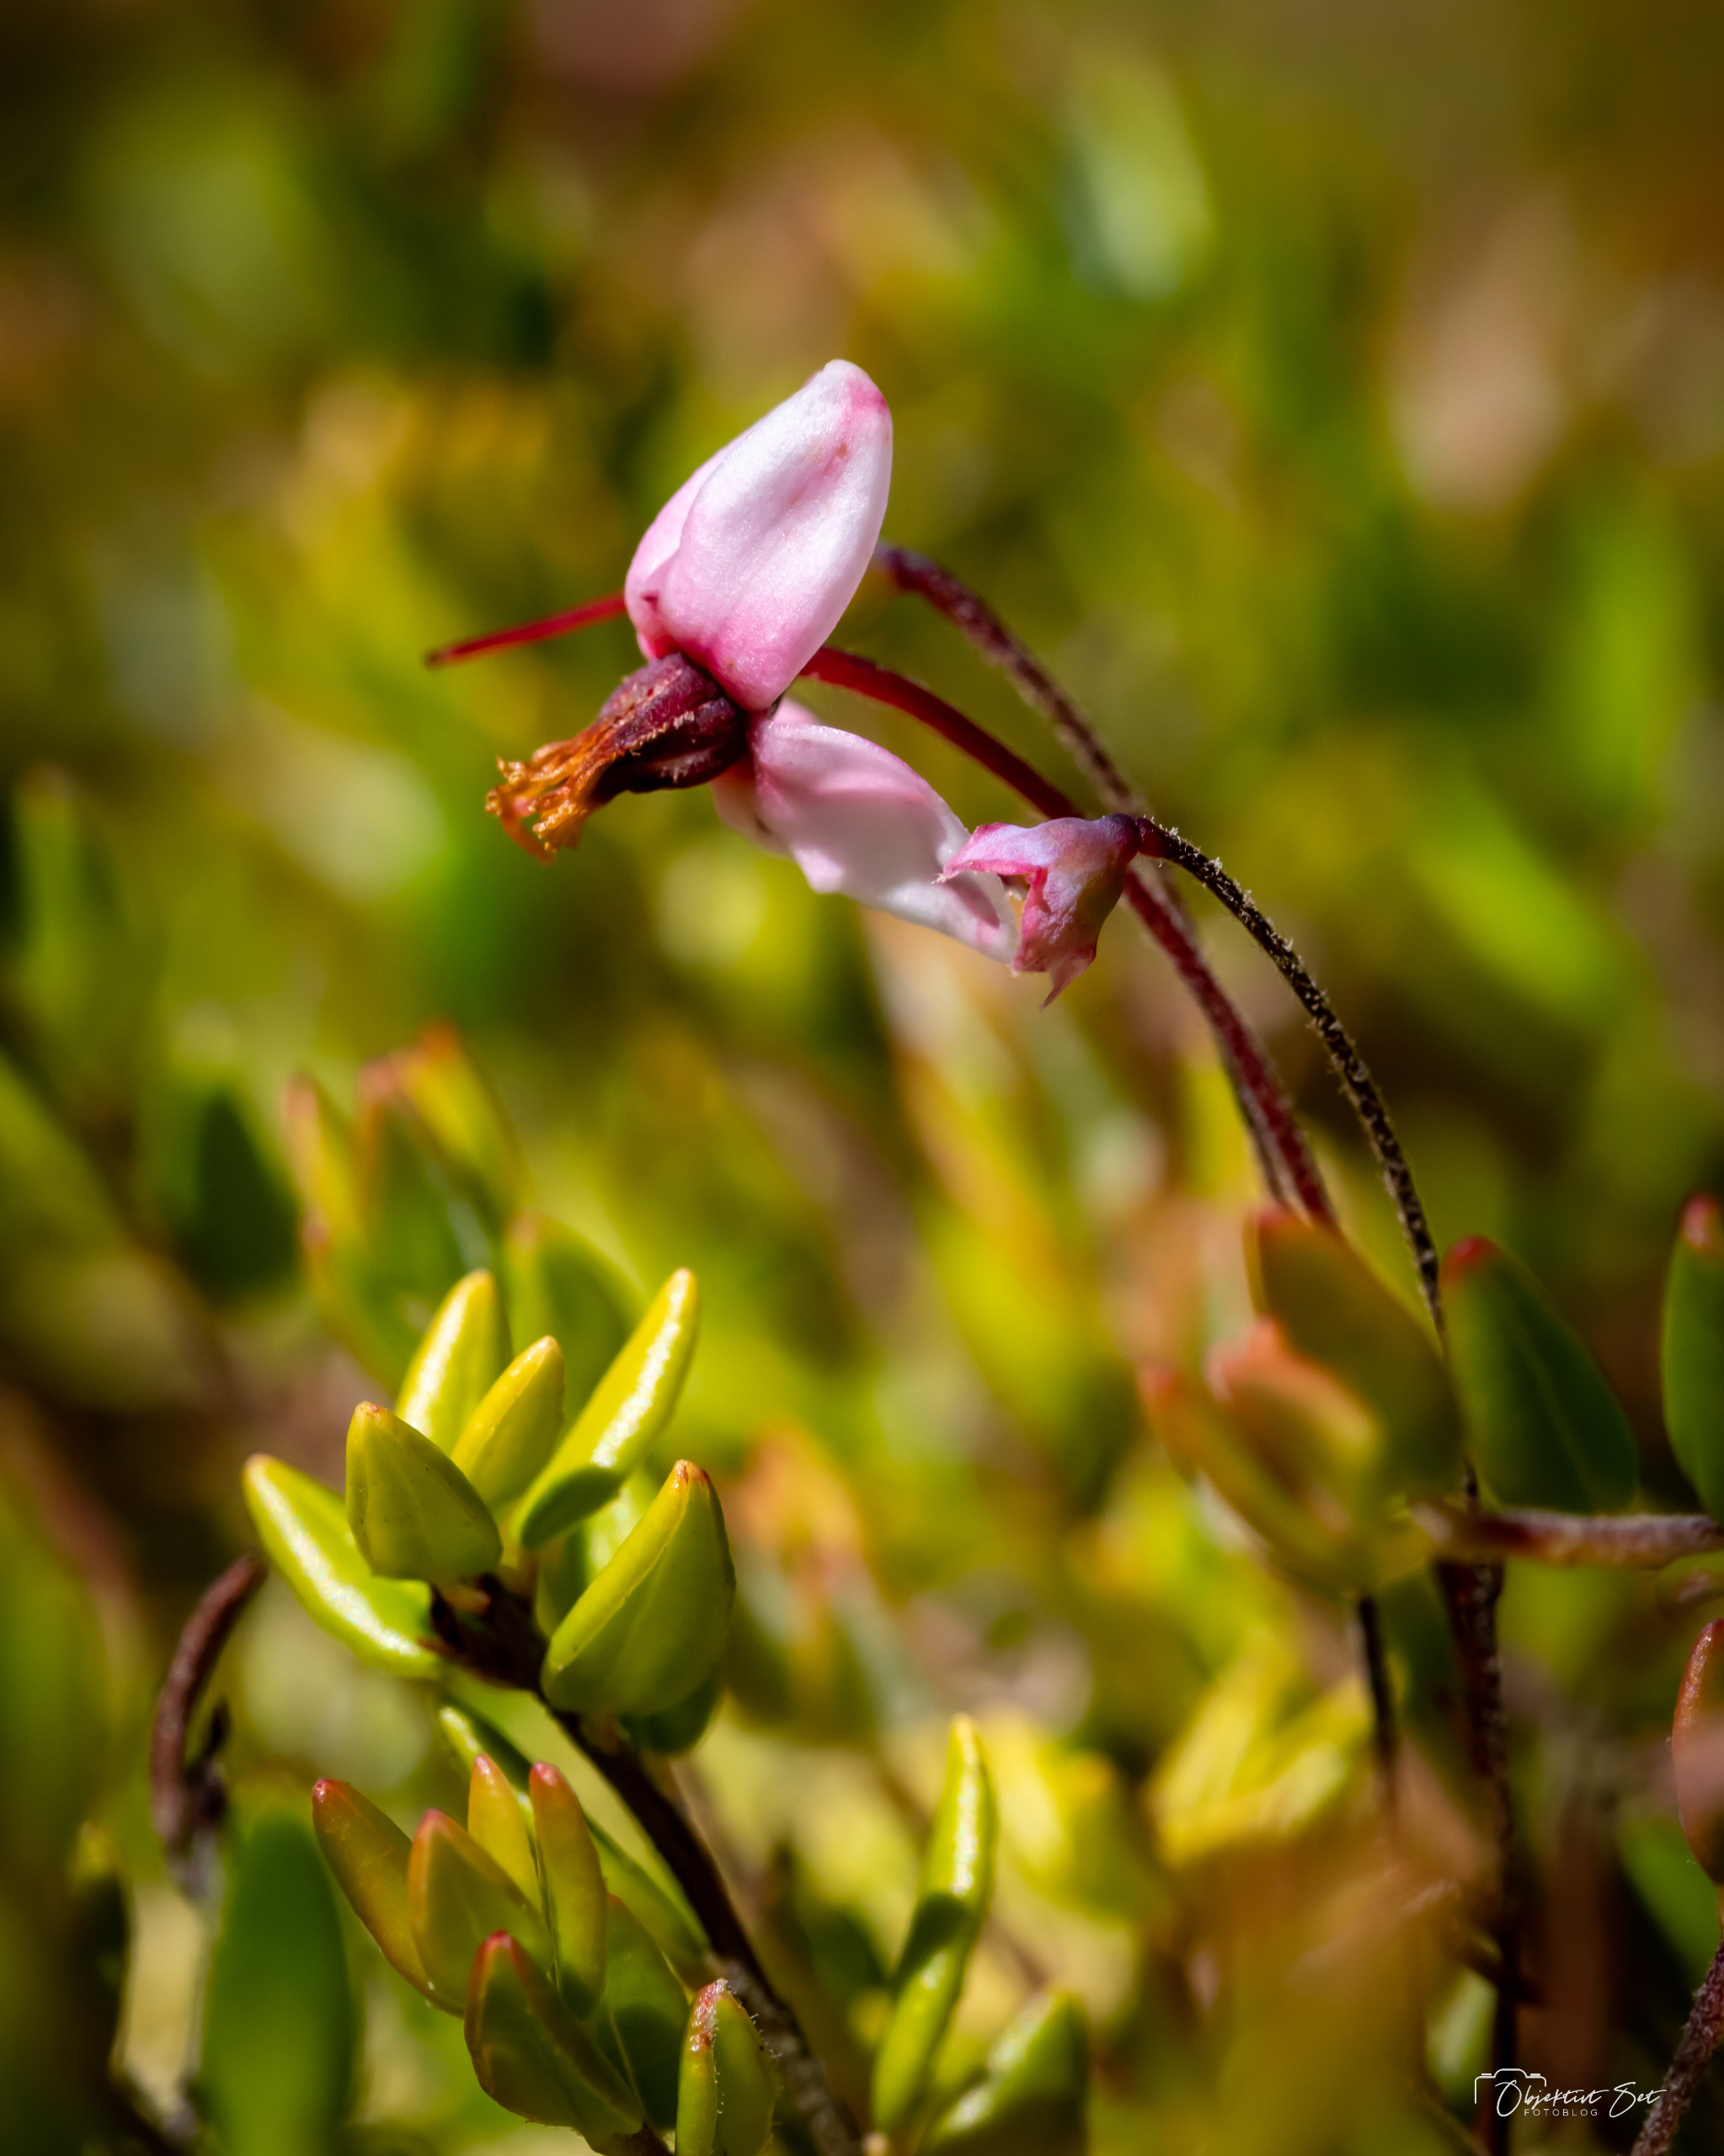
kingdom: Plantae
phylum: Tracheophyta
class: Magnoliopsida
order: Ericales
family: Ericaceae
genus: Vaccinium
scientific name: Vaccinium oxycoccos
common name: Tranebær
